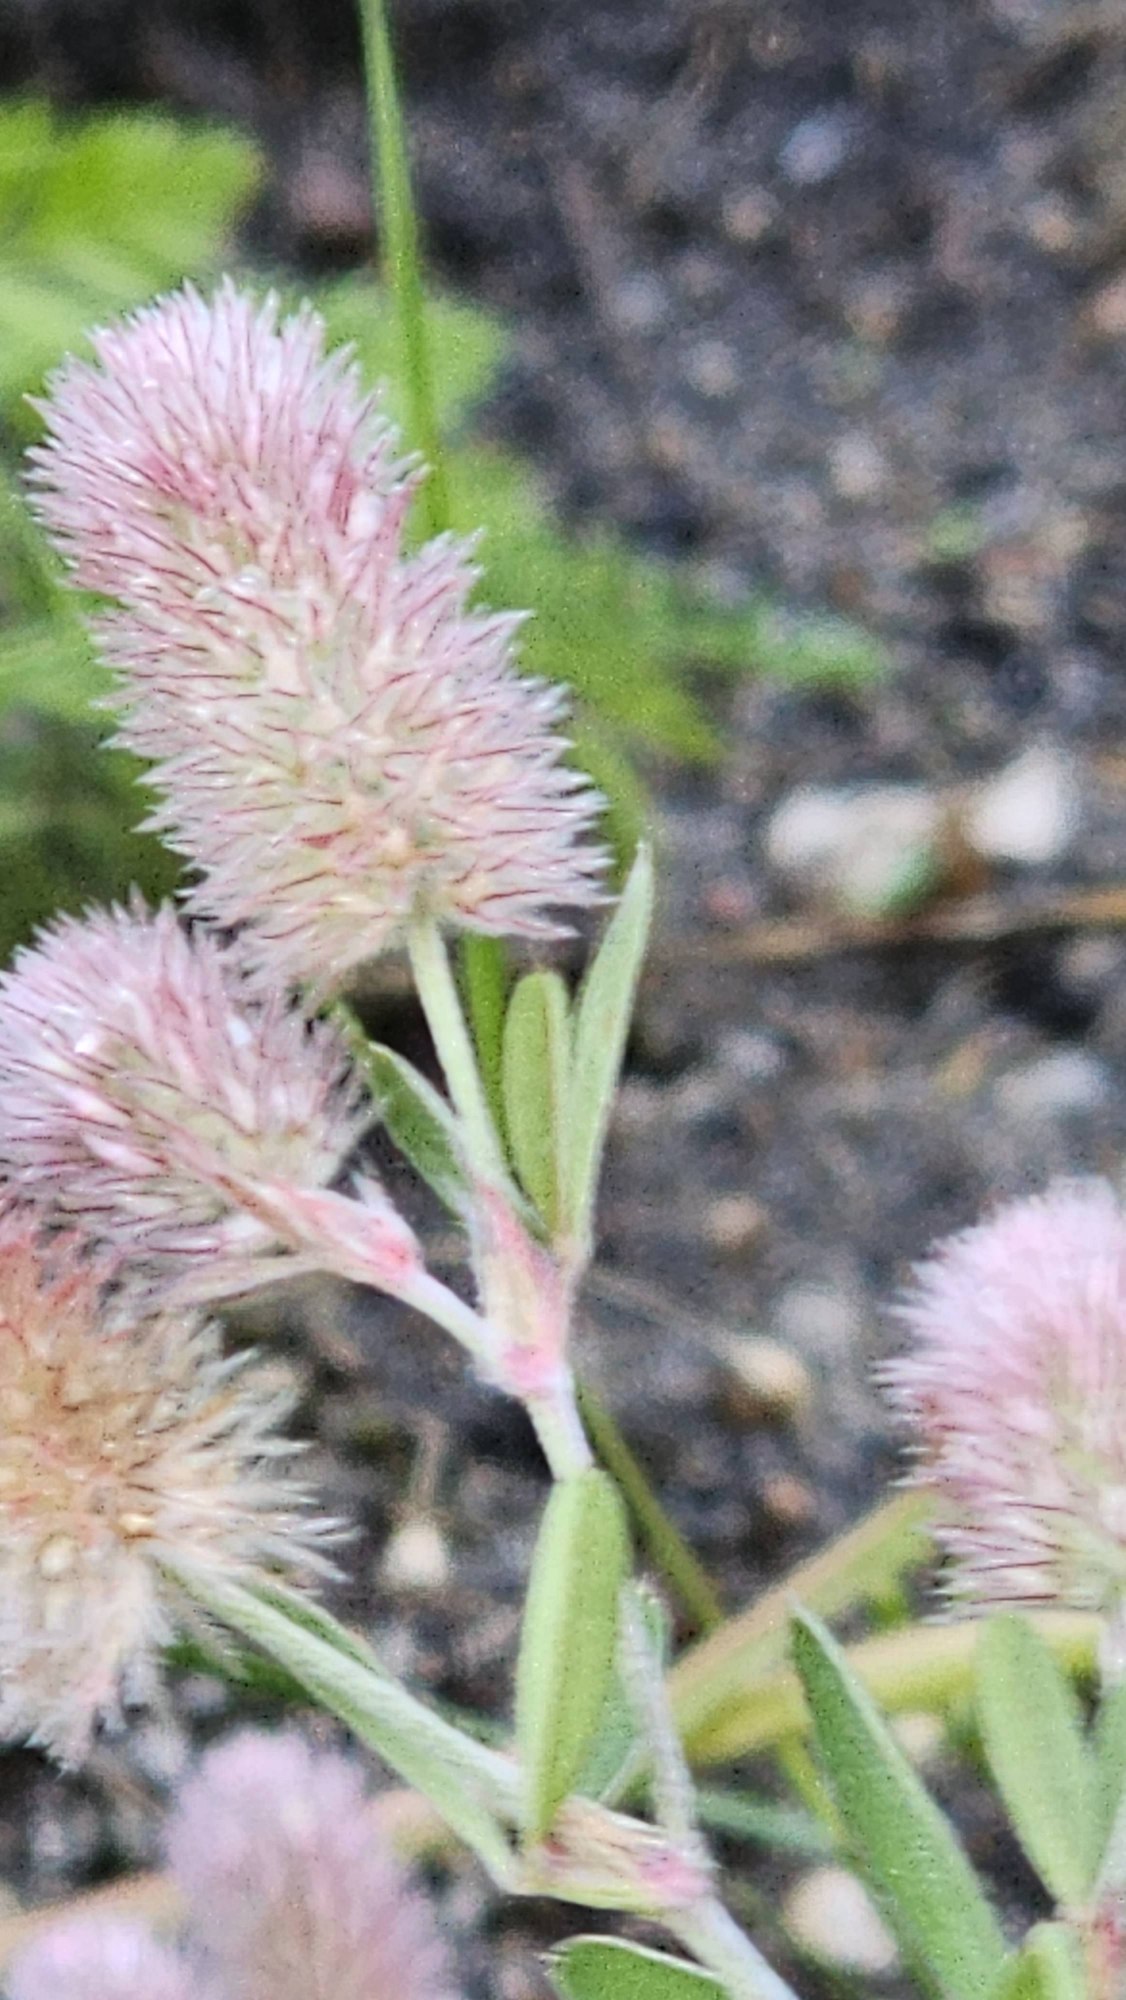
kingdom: Plantae
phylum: Tracheophyta
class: Magnoliopsida
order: Fabales
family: Fabaceae
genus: Trifolium
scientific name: Trifolium arvense
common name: Hare-kløver
